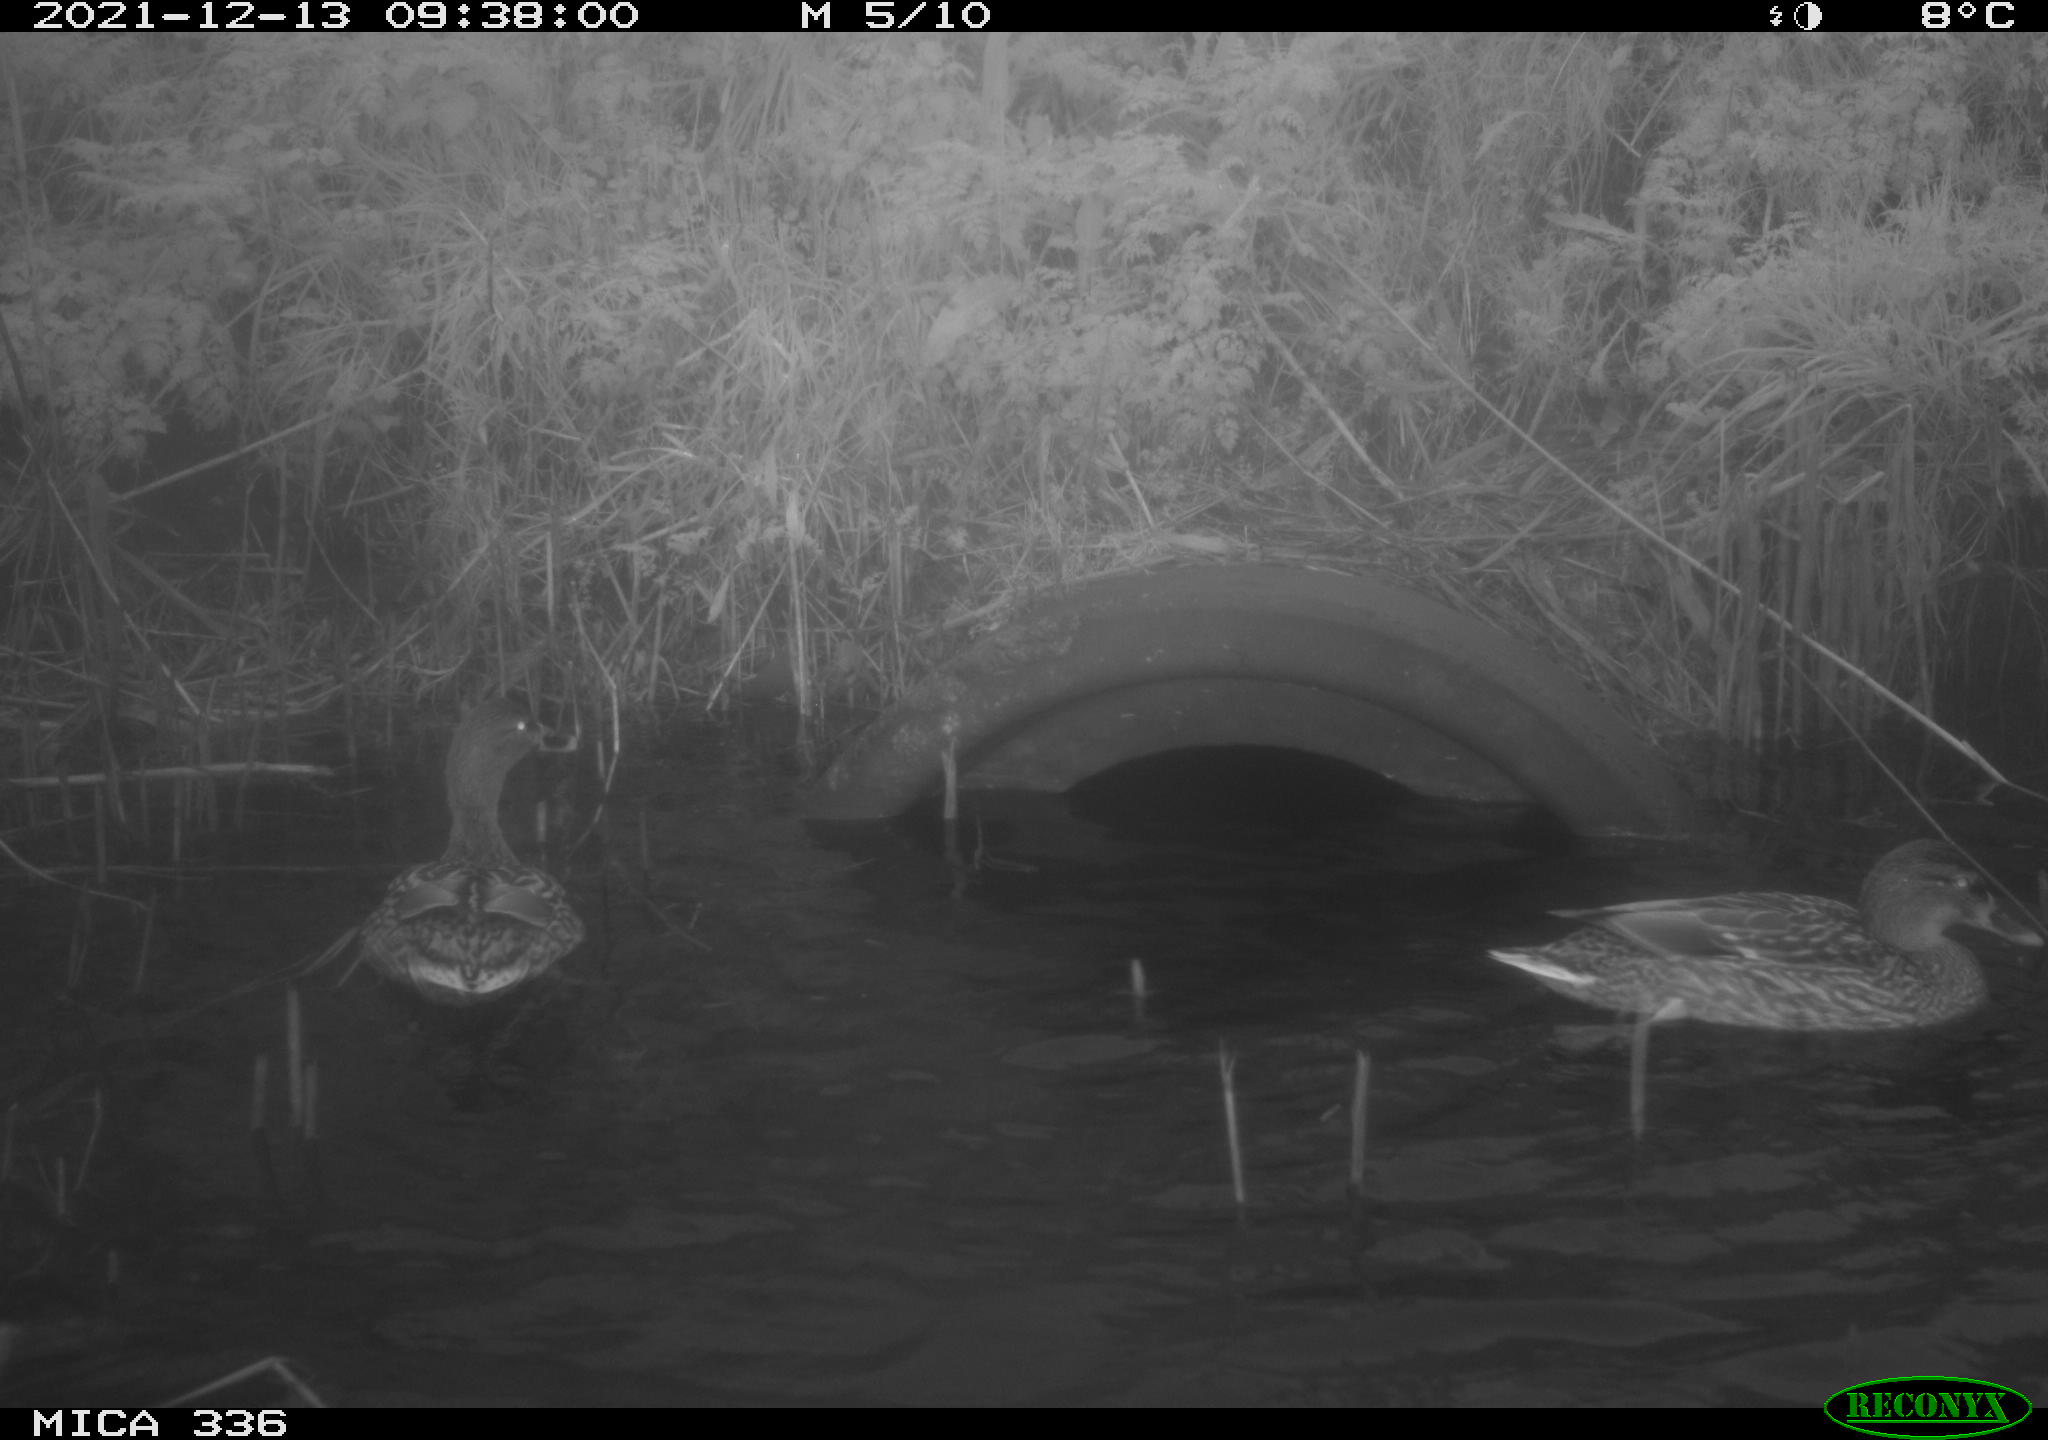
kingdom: Animalia
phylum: Chordata
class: Aves
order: Gruiformes
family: Rallidae
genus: Gallinula
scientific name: Gallinula chloropus
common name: Common moorhen
